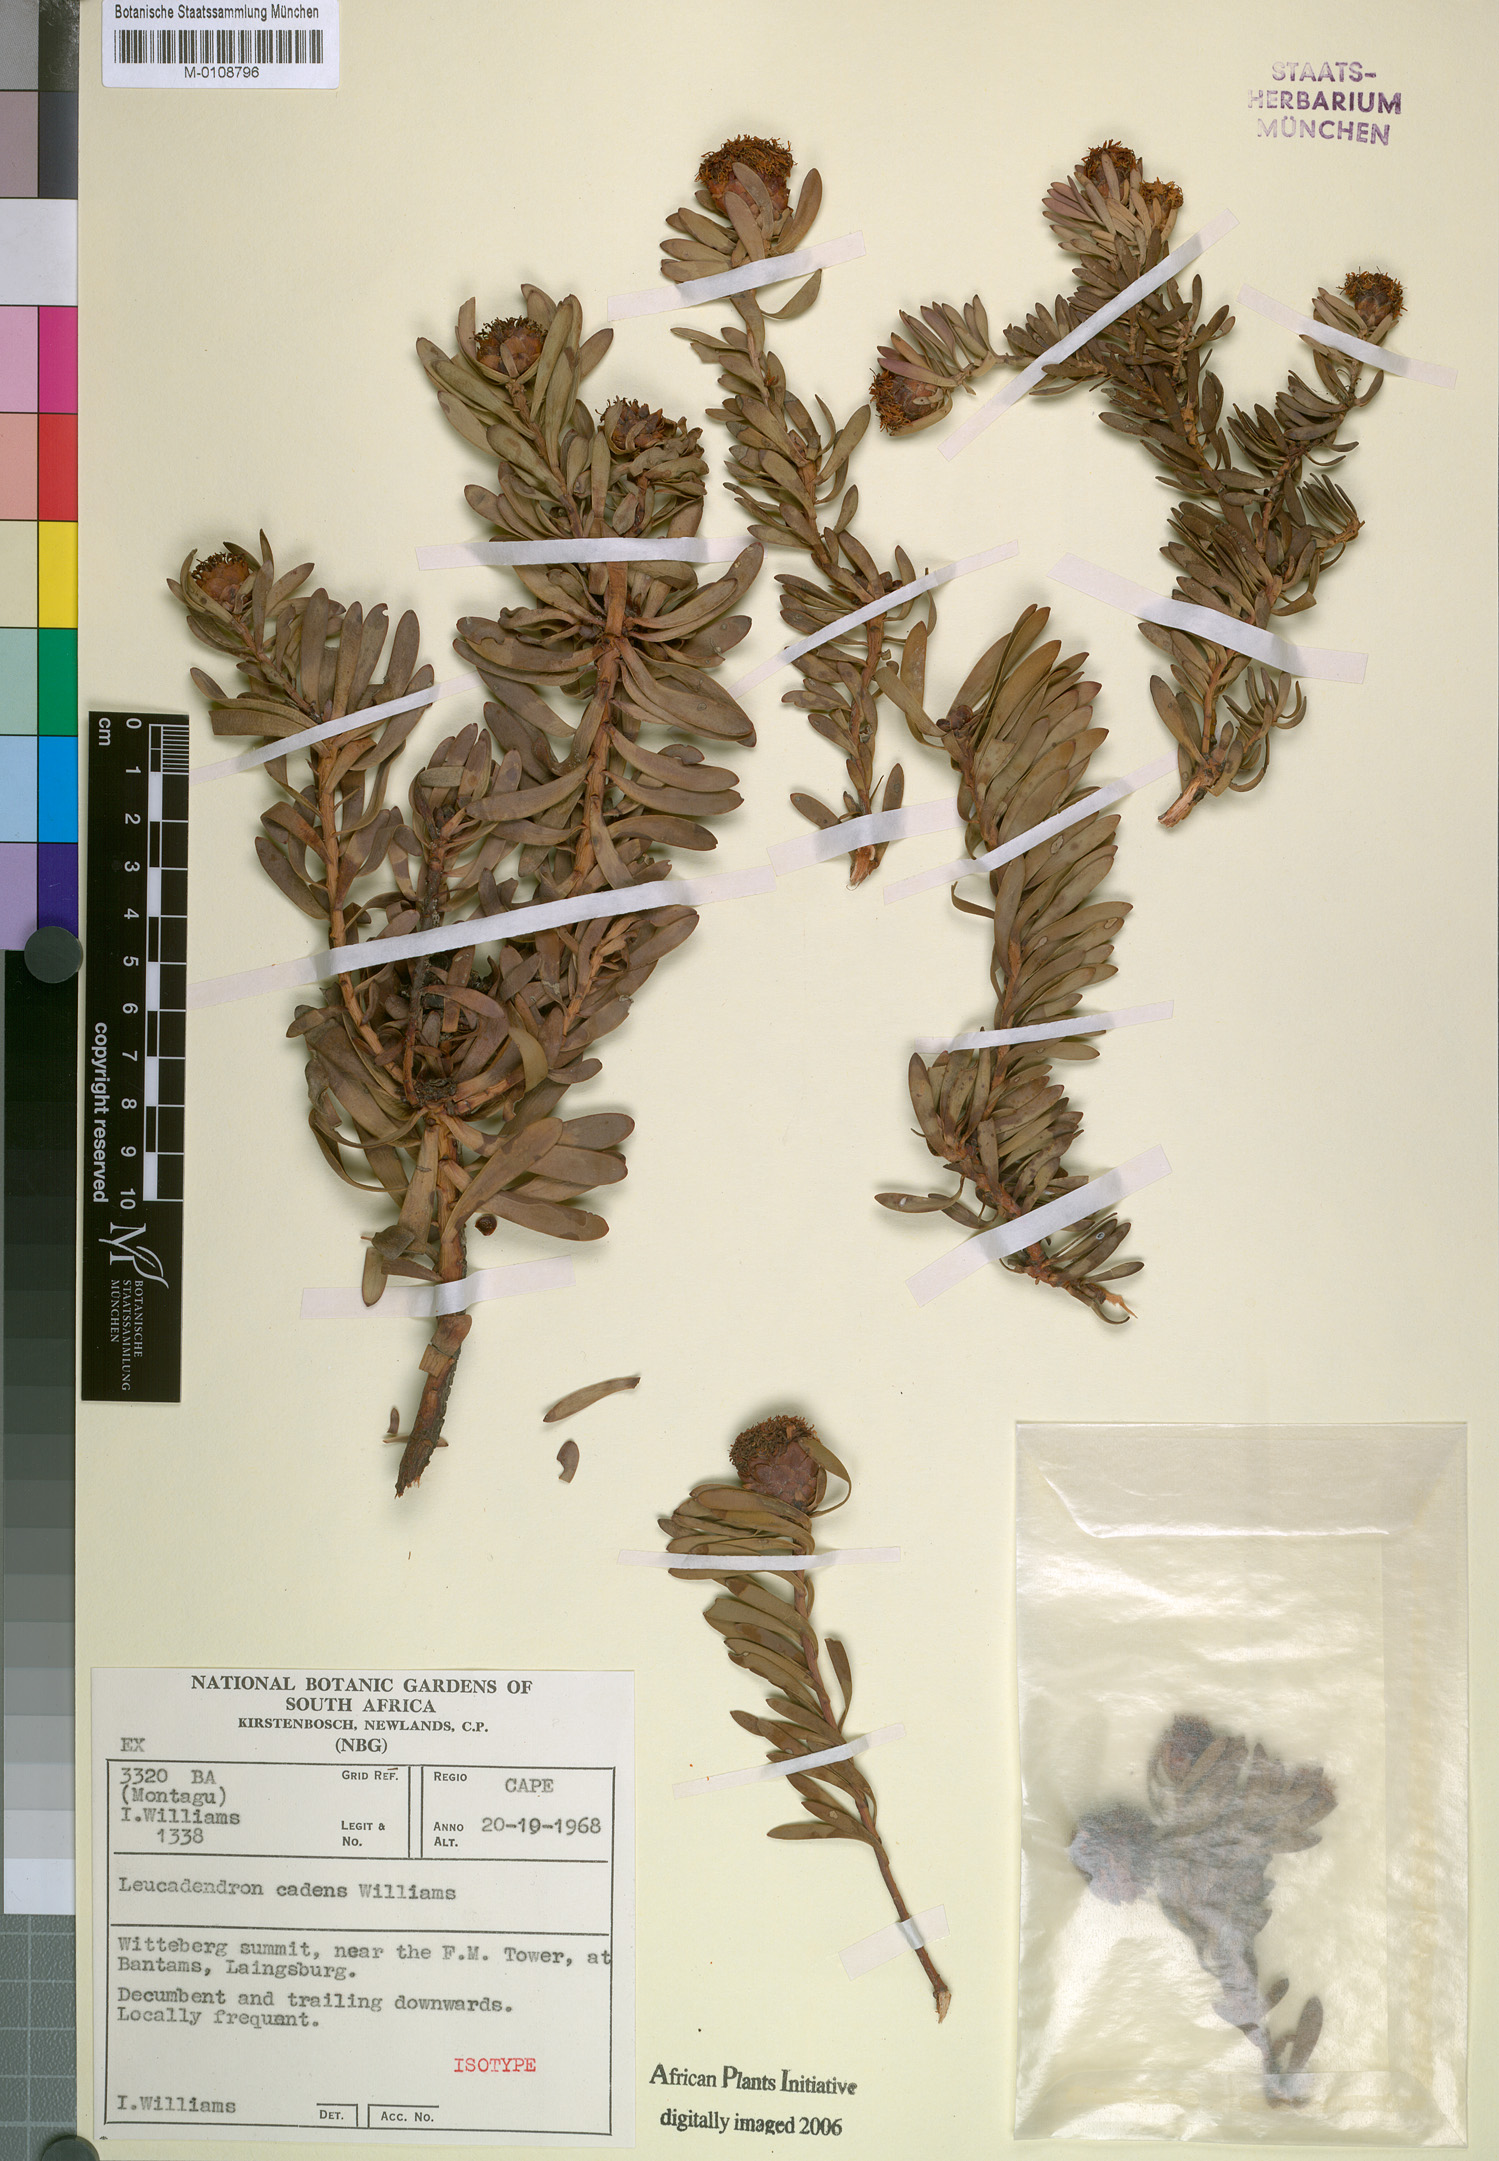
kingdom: Plantae
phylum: Tracheophyta
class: Magnoliopsida
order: Proteales
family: Proteaceae
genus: Leucadendron
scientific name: Leucadendron cadens
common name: Witteberg sunbush
